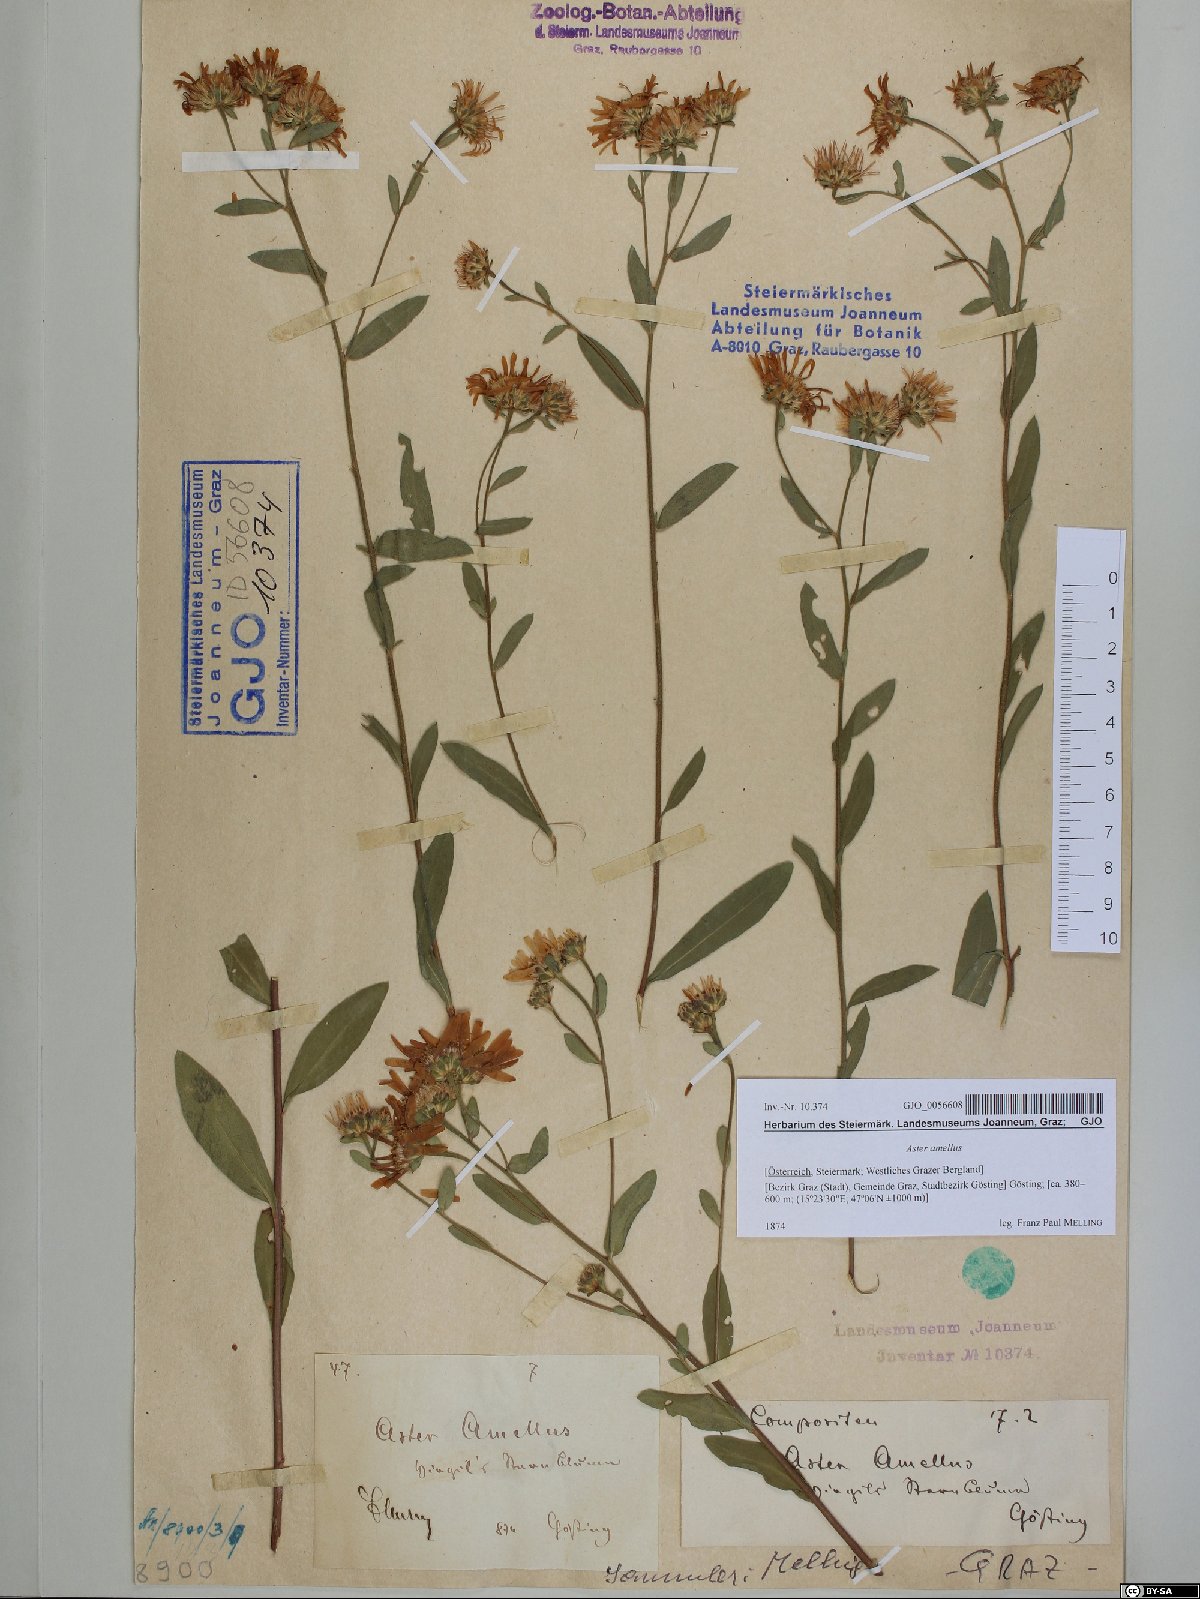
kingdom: Plantae
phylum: Tracheophyta
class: Magnoliopsida
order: Asterales
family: Asteraceae
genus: Aster
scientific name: Aster amellus
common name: European michaelmas daisy
